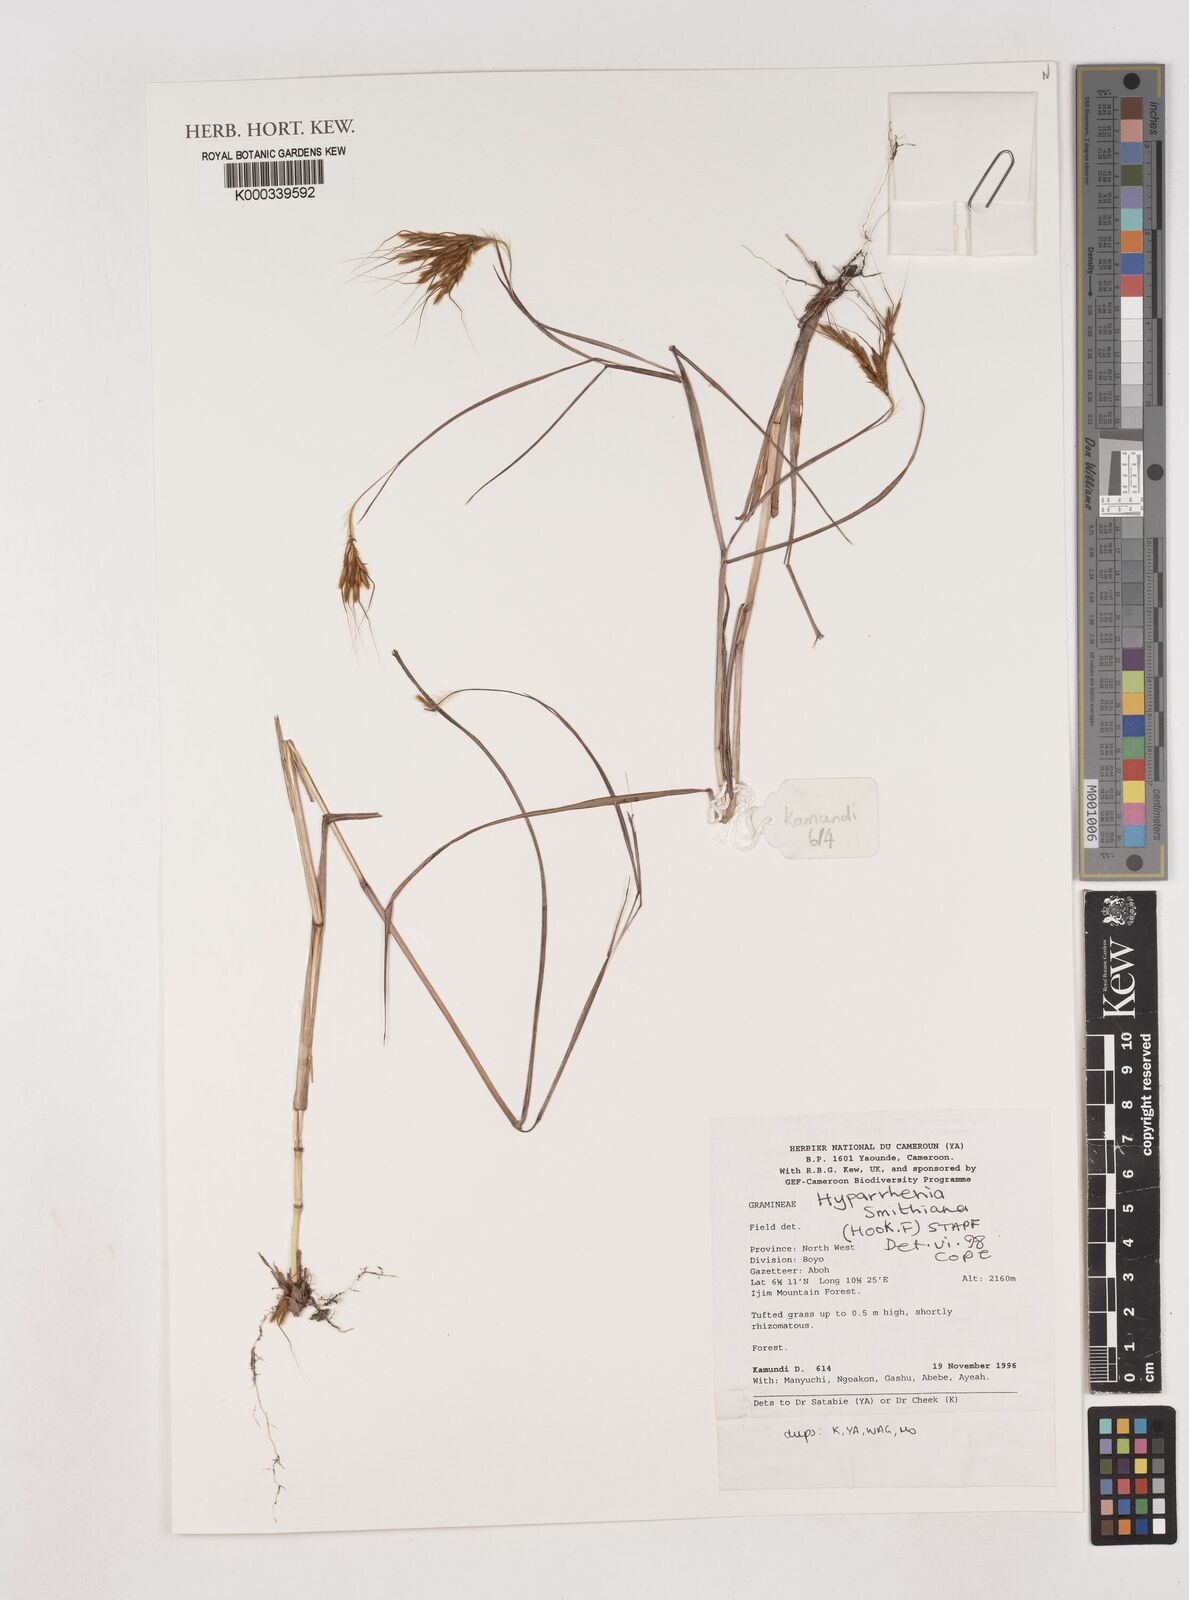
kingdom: Plantae
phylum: Tracheophyta
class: Liliopsida
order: Poales
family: Poaceae
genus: Hyparrhenia
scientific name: Hyparrhenia smithiana
